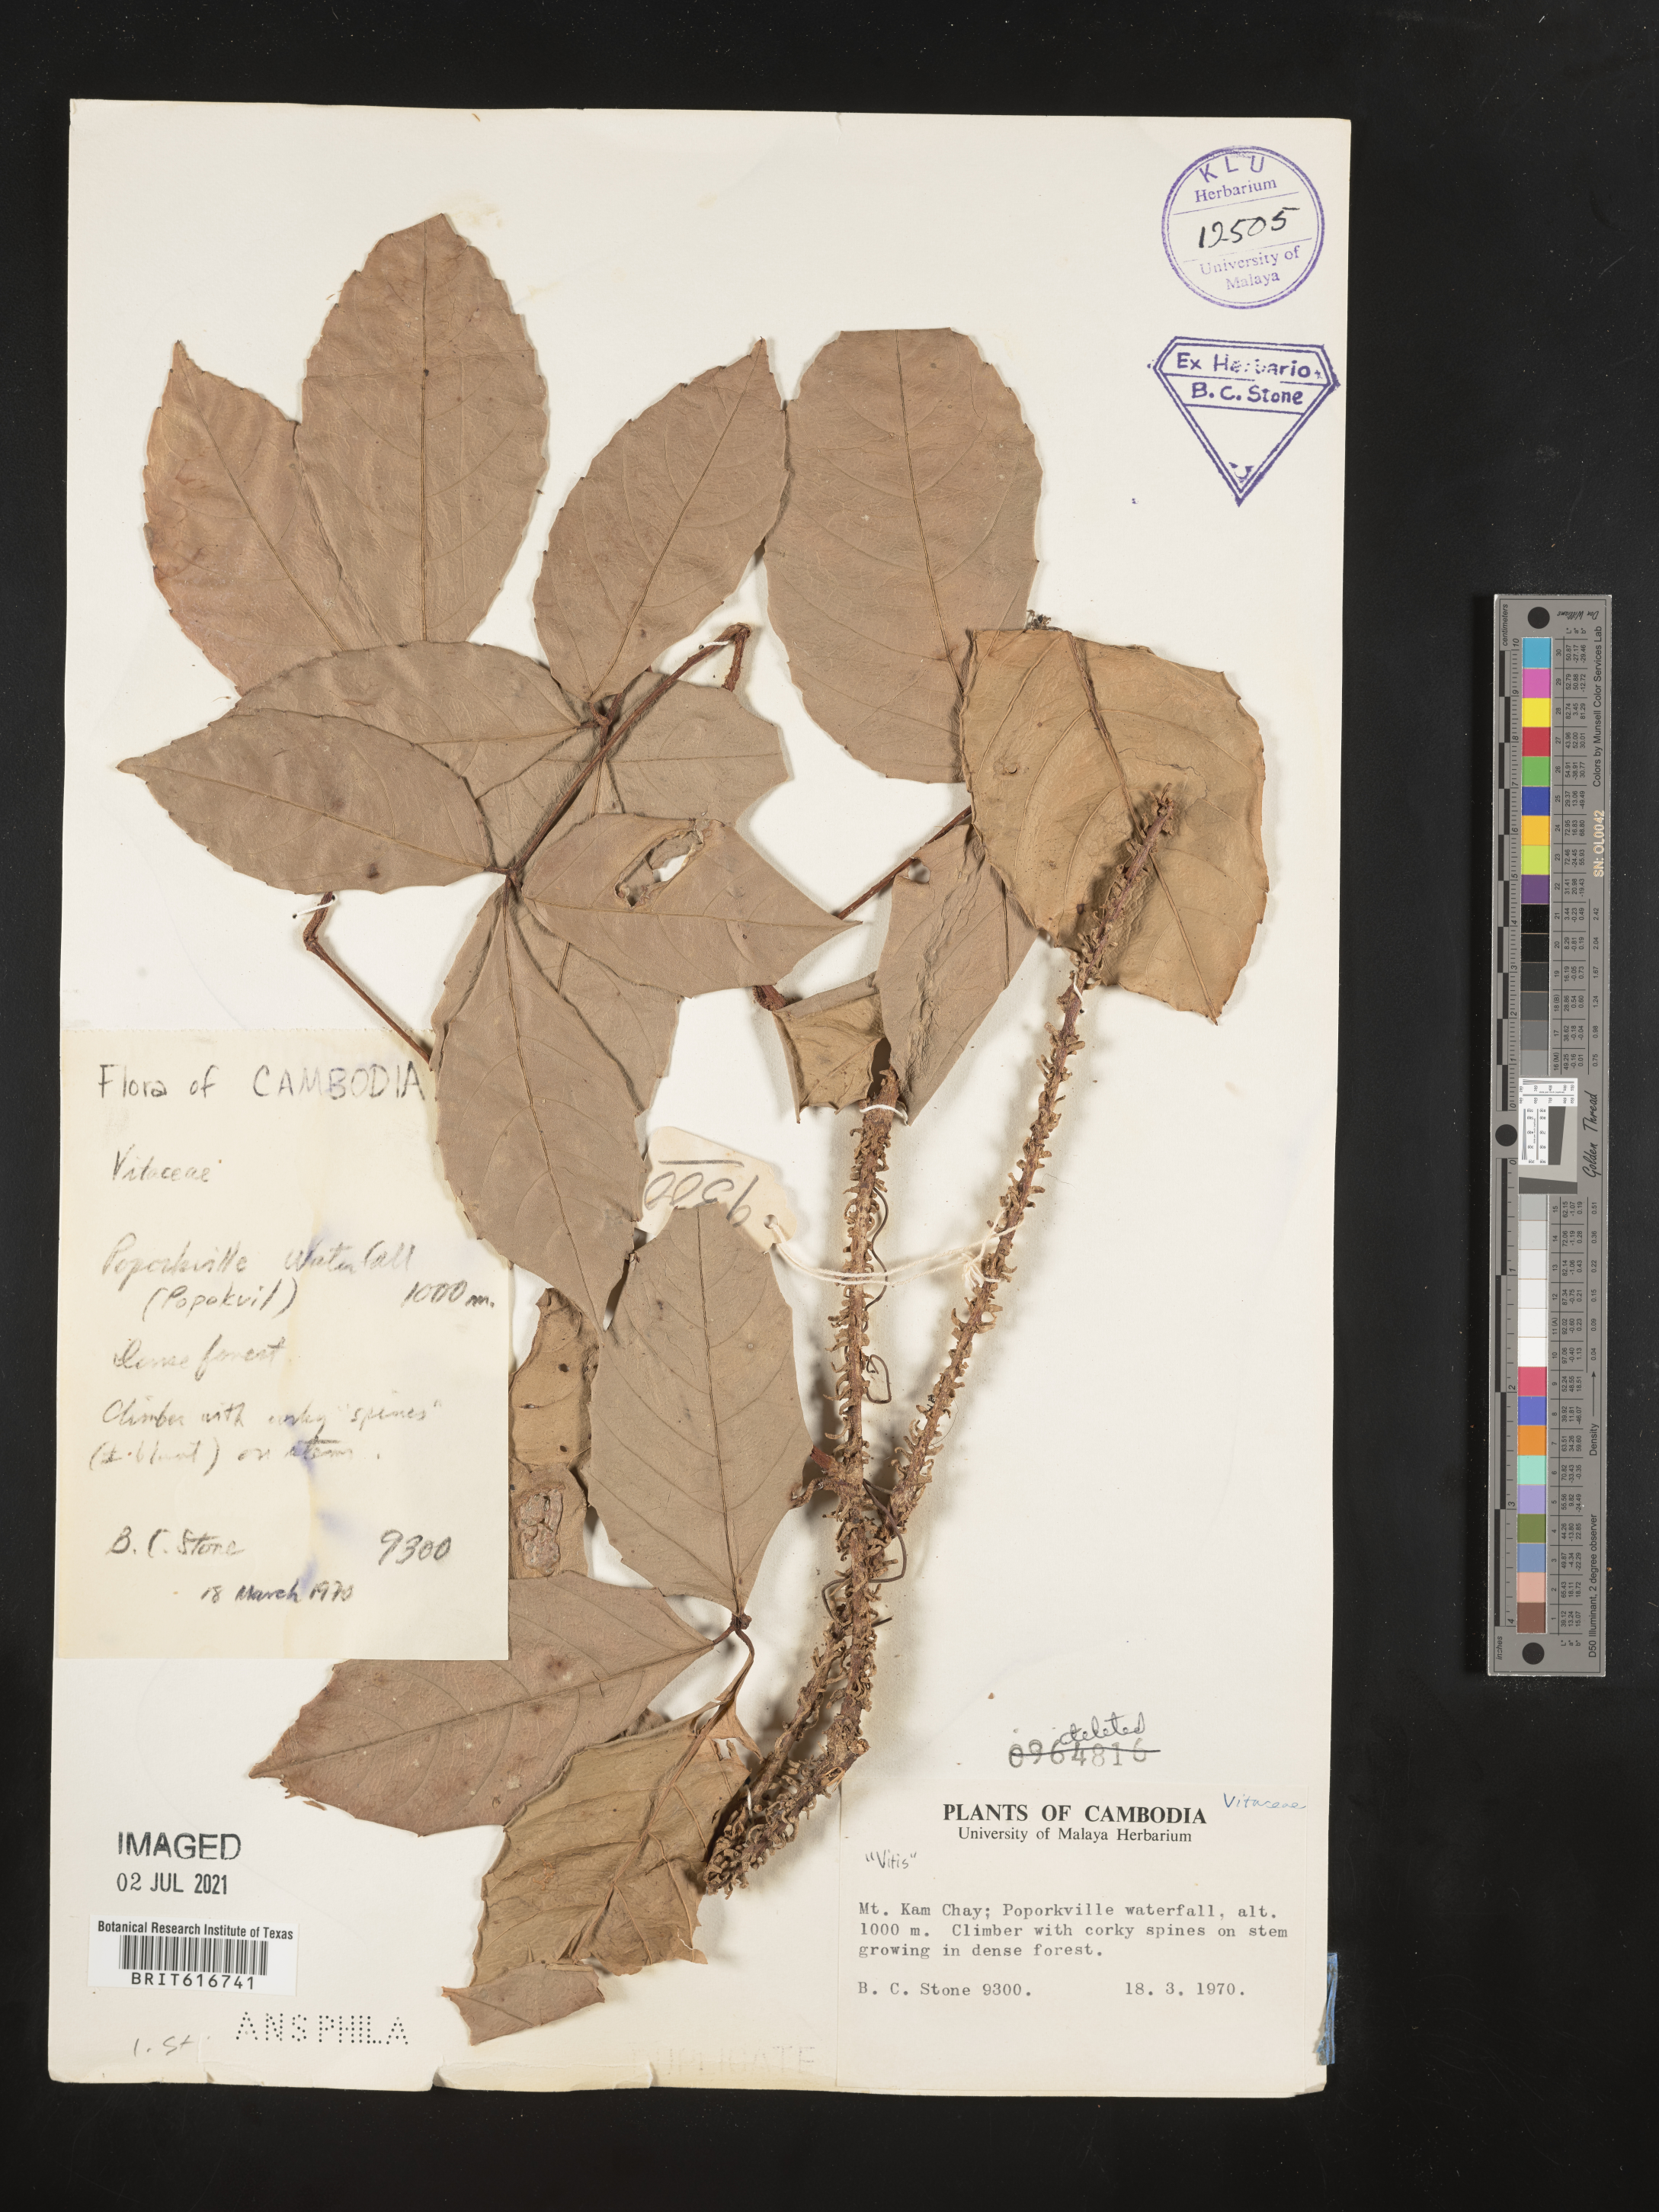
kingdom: Plantae
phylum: Tracheophyta
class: Magnoliopsida
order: Vitales
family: Vitaceae
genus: Vitis
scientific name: Vitis
